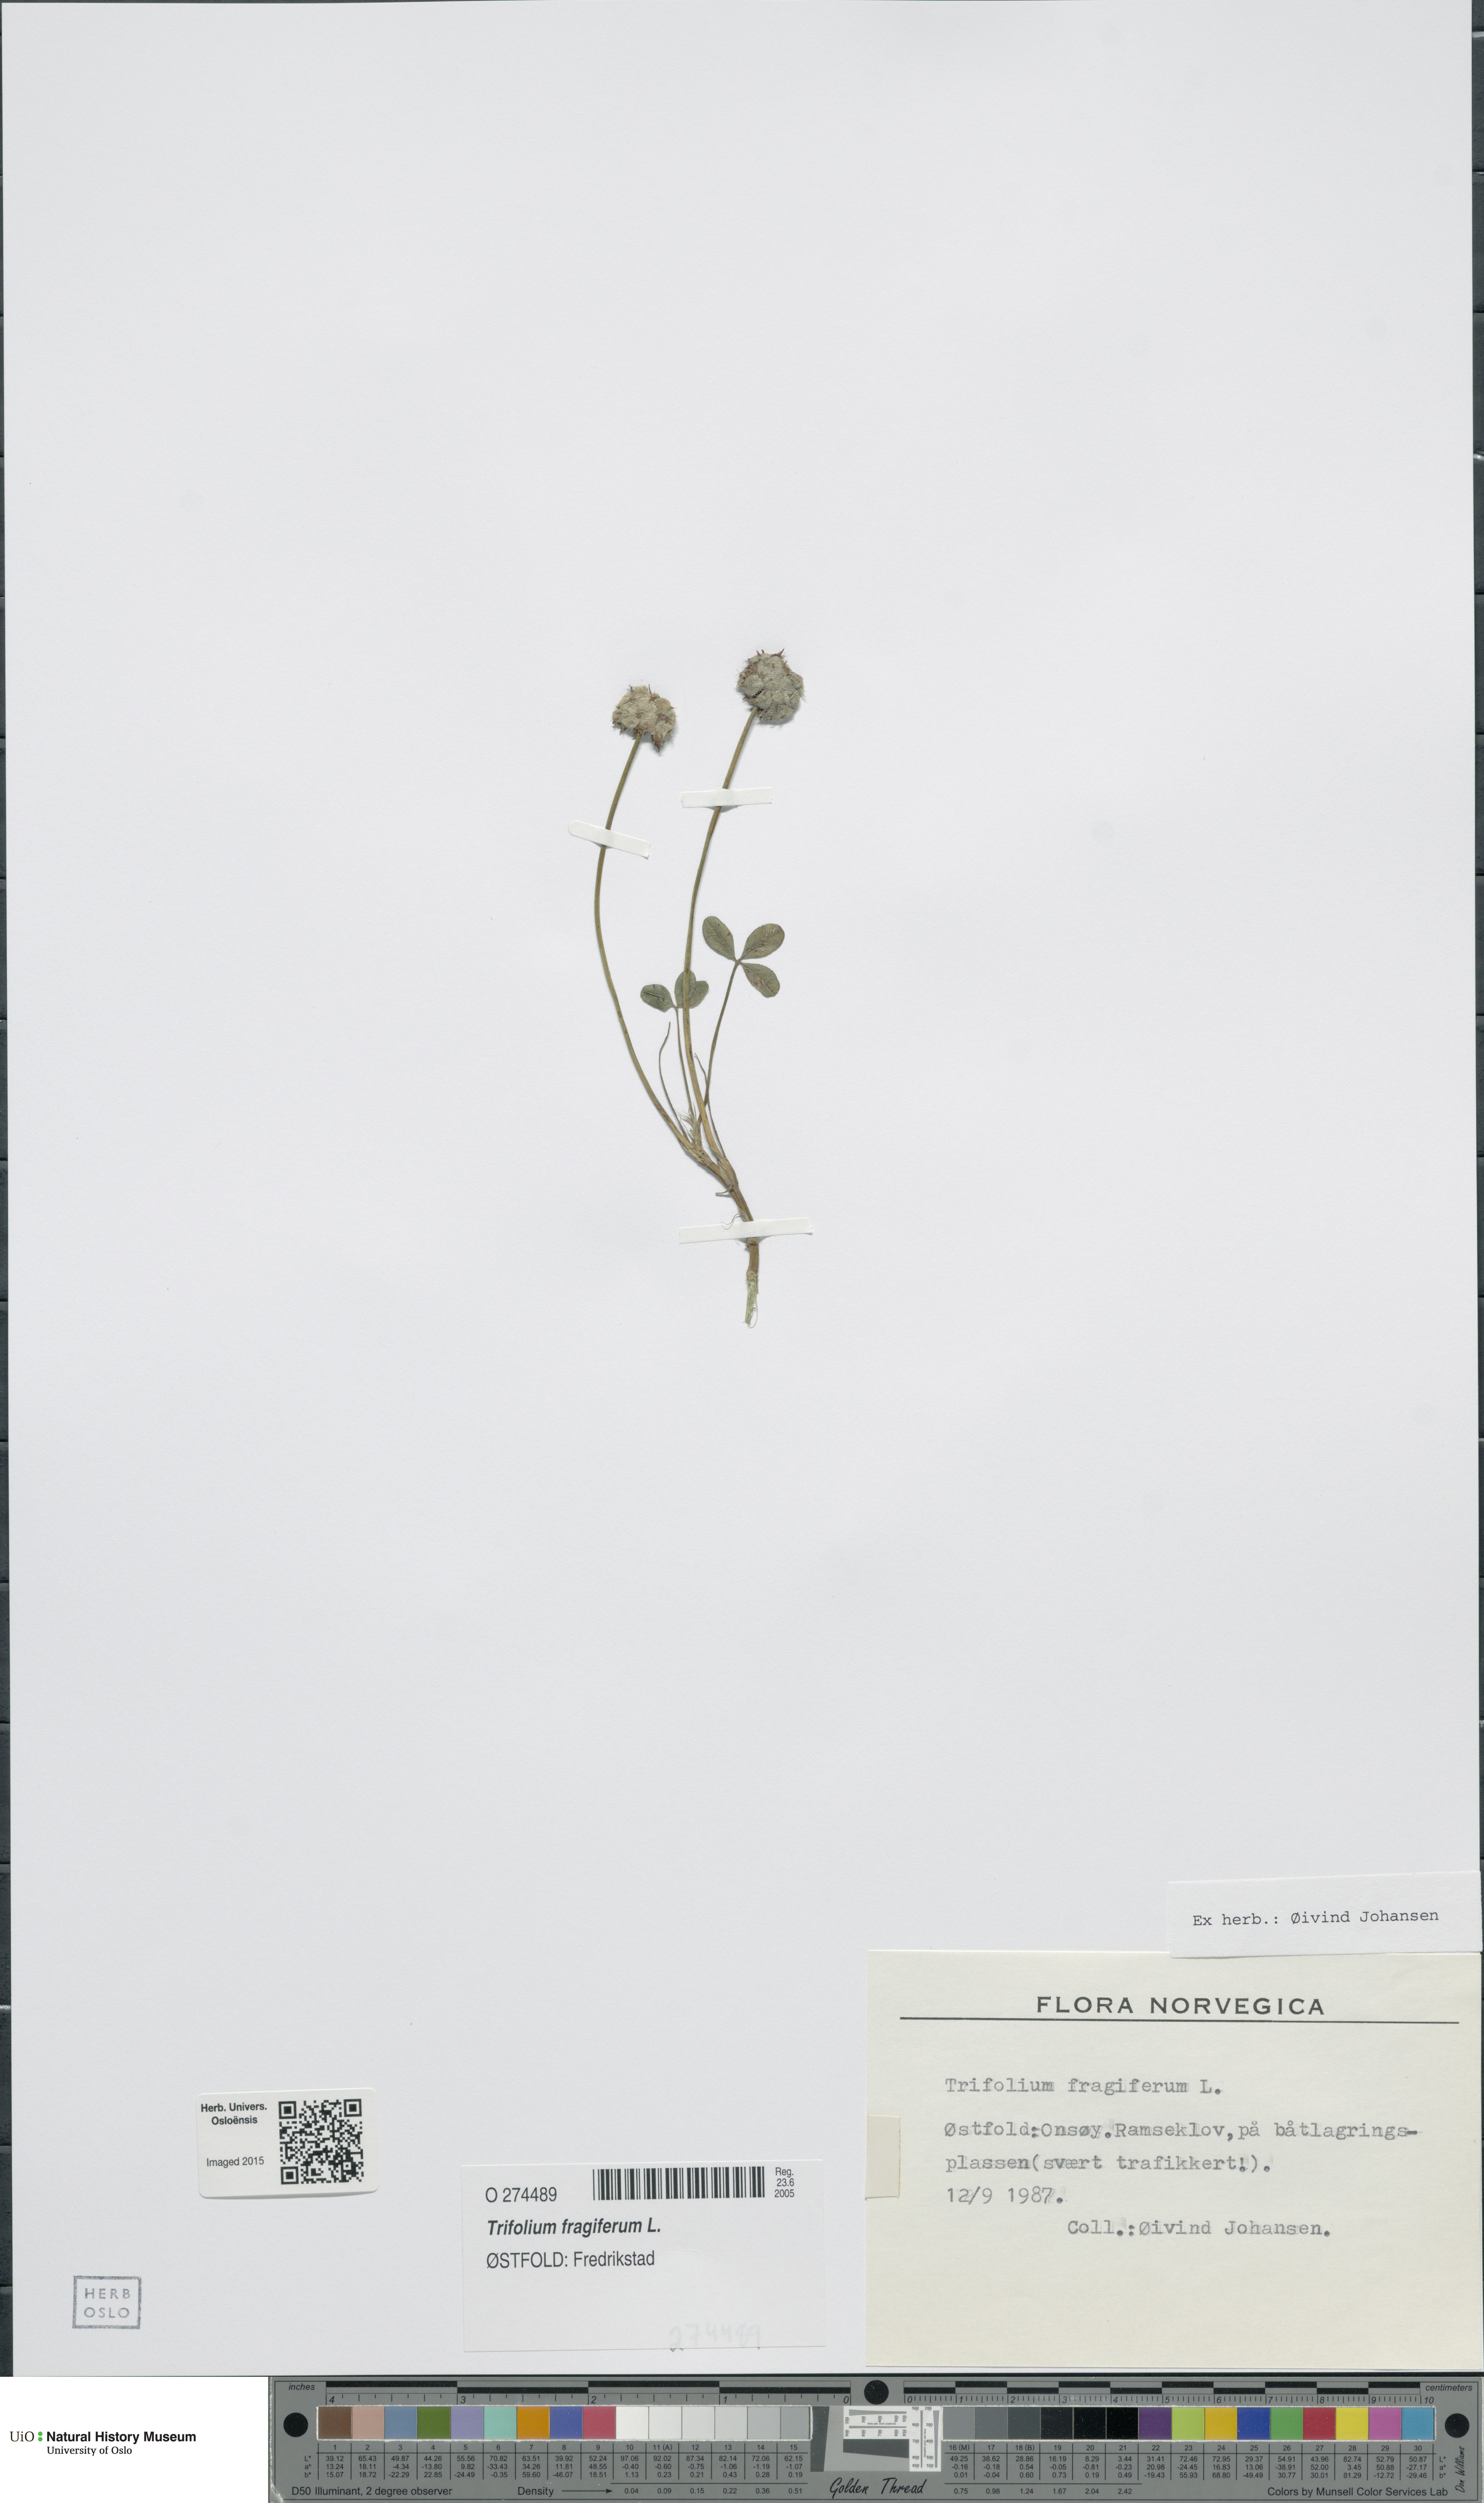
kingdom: Plantae
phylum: Tracheophyta
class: Magnoliopsida
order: Fabales
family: Fabaceae
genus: Trifolium
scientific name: Trifolium fragiferum
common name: Strawberry clover
